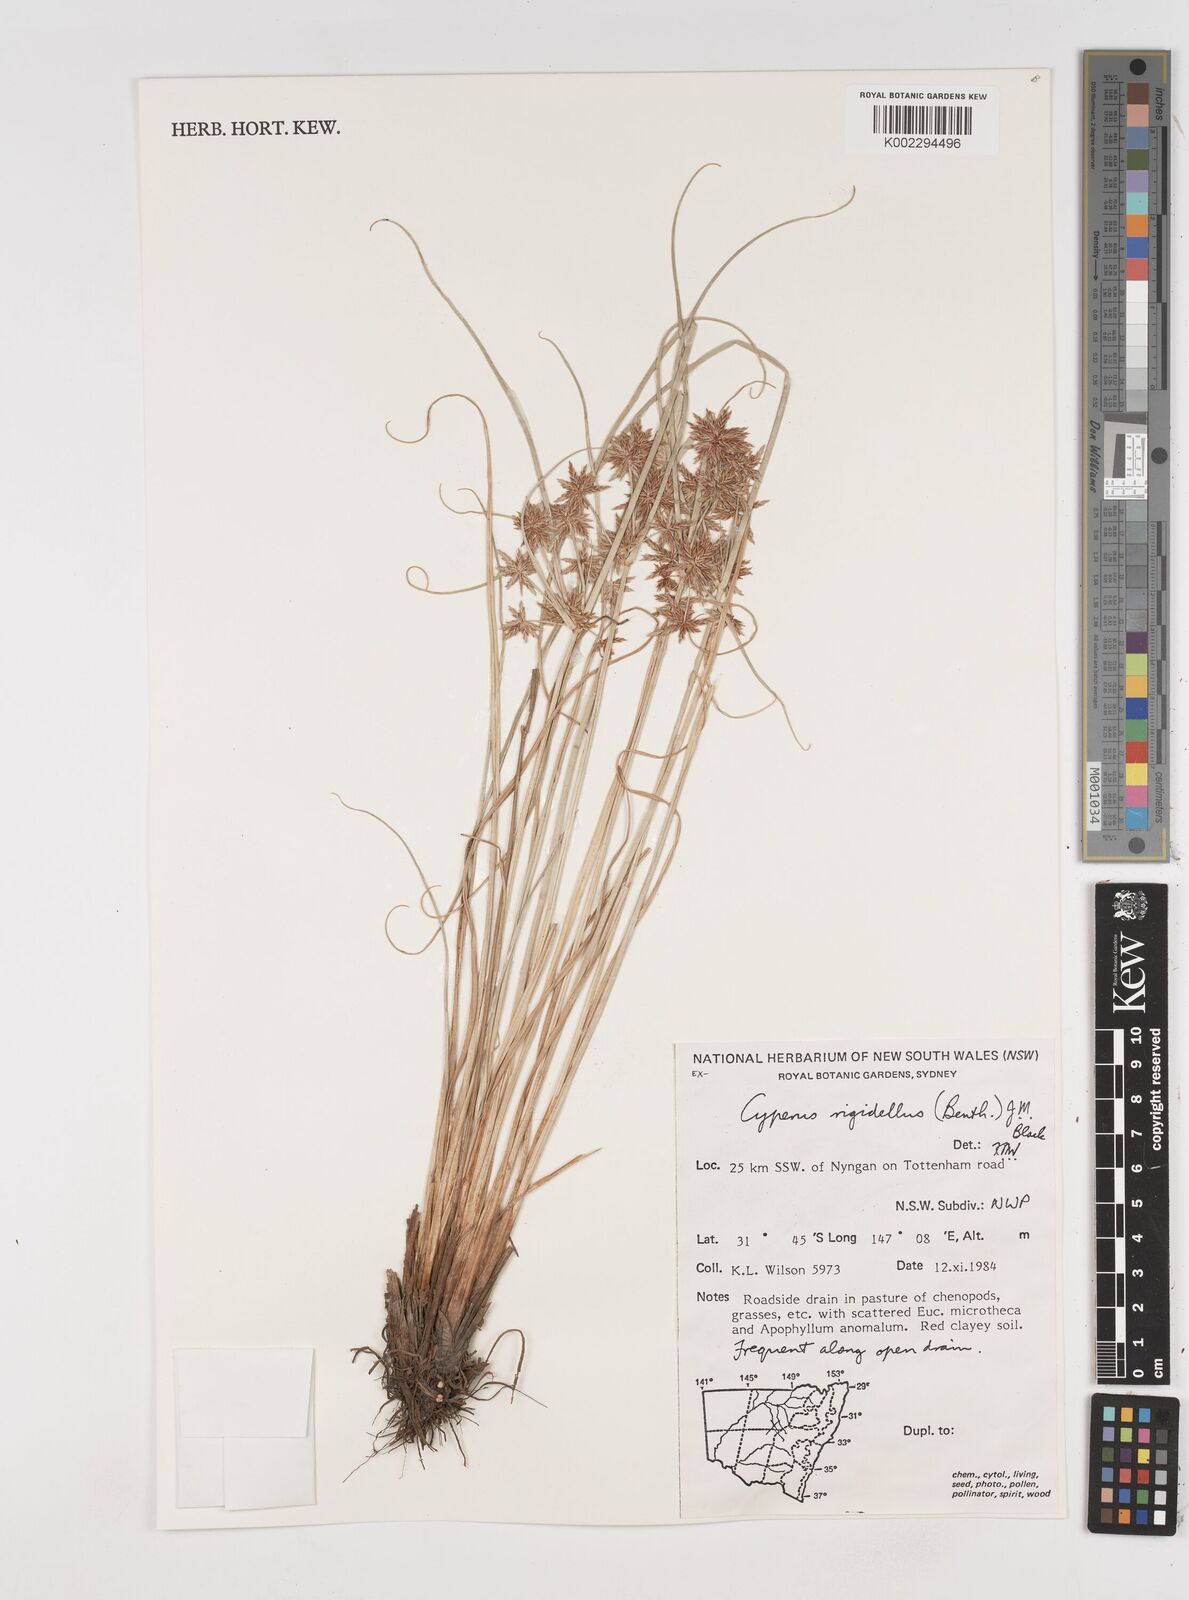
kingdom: Plantae
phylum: Tracheophyta
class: Liliopsida
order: Poales
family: Cyperaceae
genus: Cyperus
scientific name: Cyperus rigidellus
